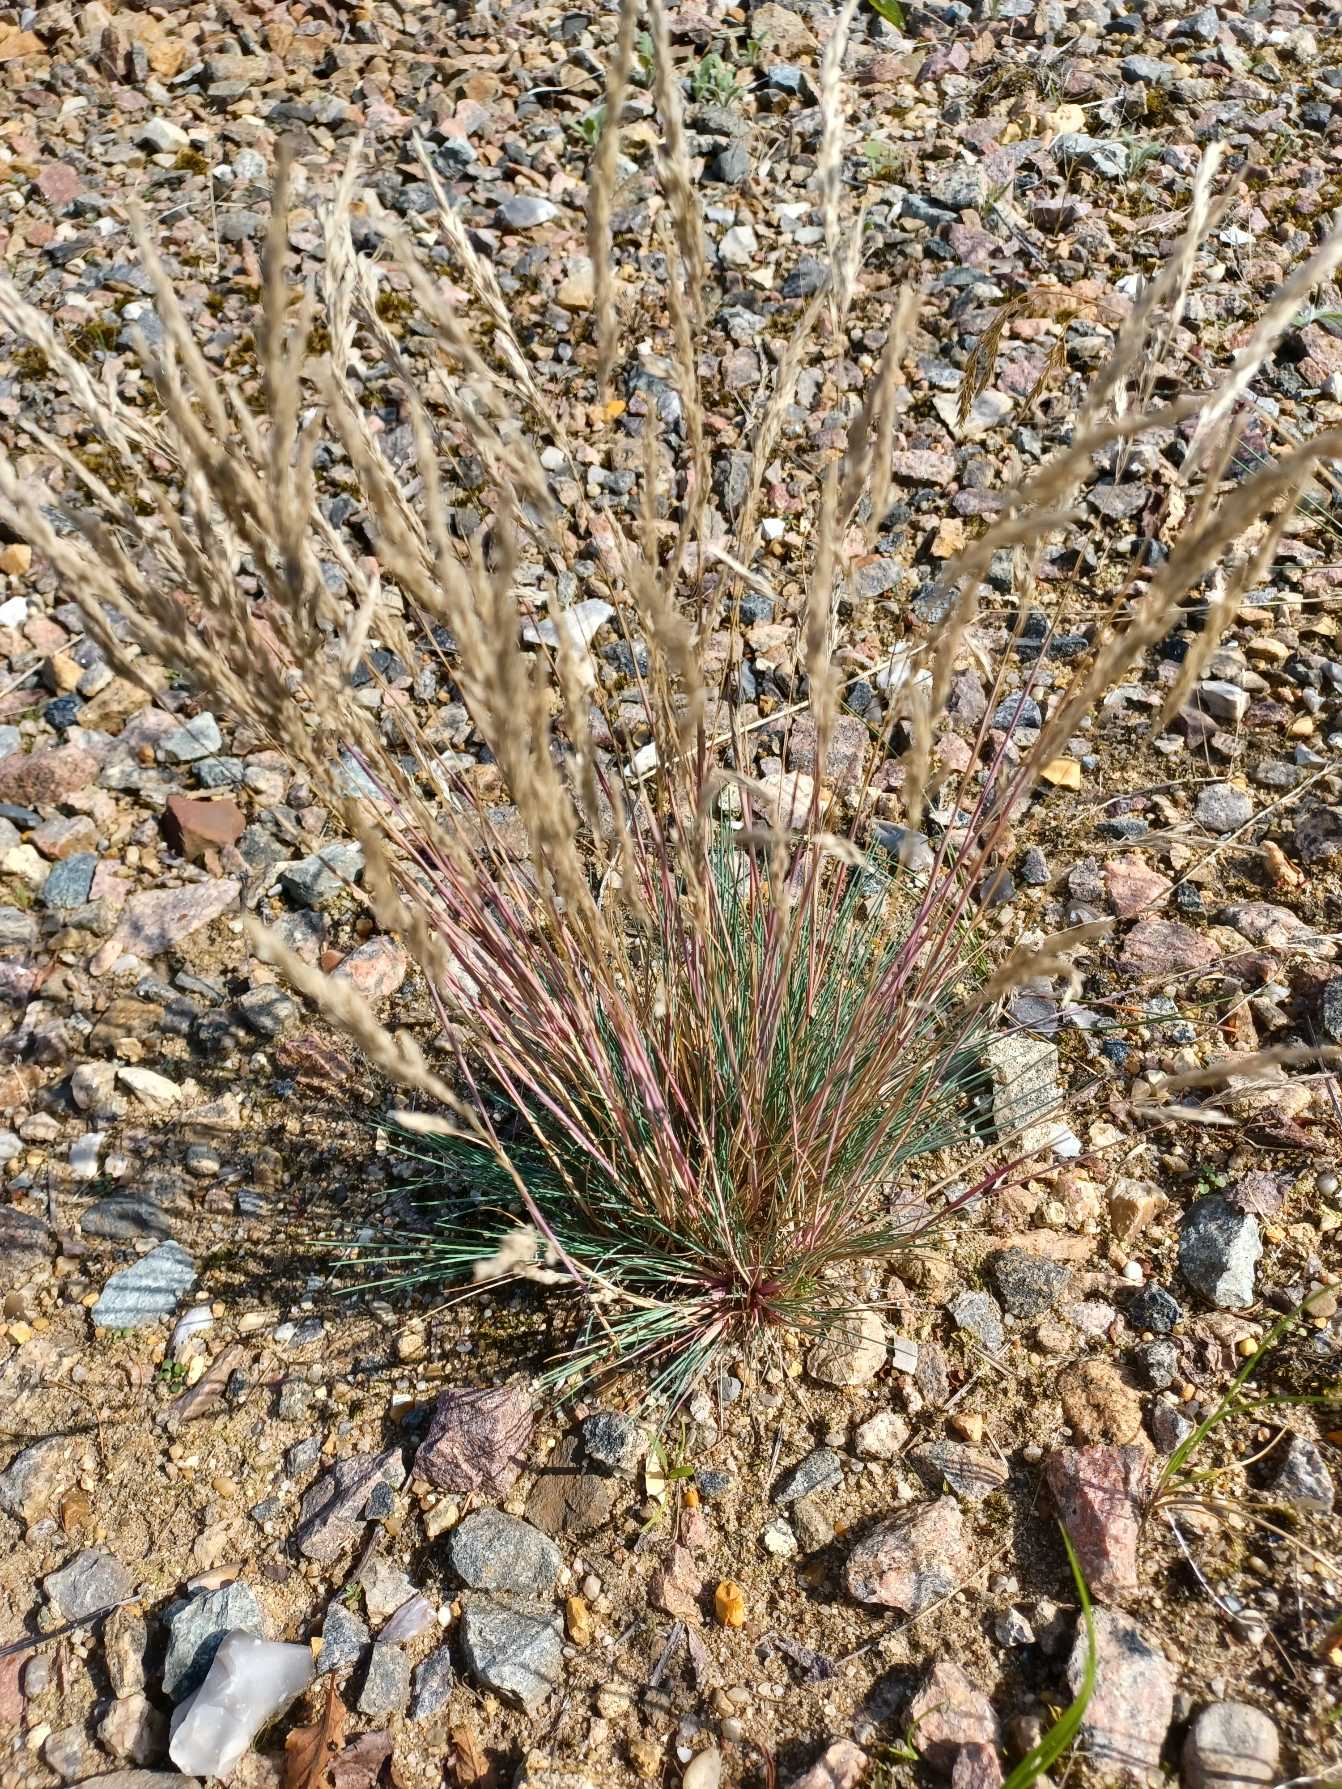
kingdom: Plantae
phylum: Tracheophyta
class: Liliopsida
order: Poales
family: Poaceae
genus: Corynephorus
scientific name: Corynephorus canescens
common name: Sandskæg
